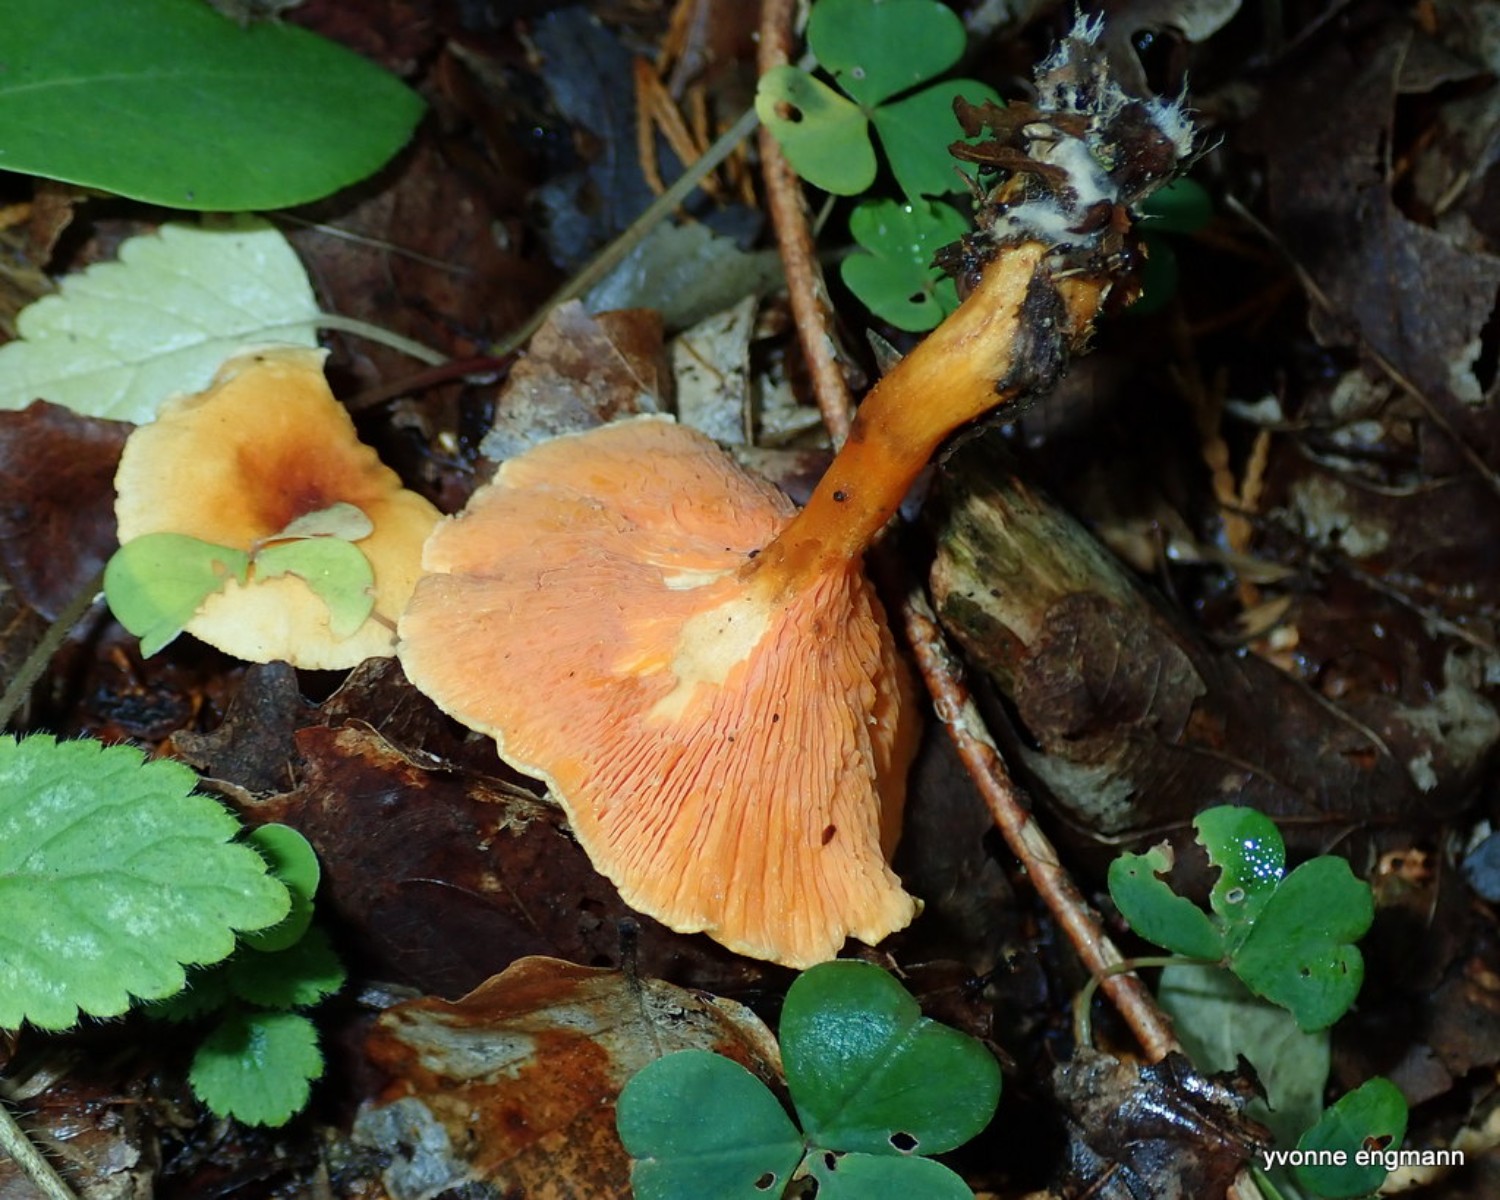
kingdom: Fungi
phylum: Basidiomycota
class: Agaricomycetes
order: Boletales
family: Hygrophoropsidaceae
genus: Hygrophoropsis
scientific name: Hygrophoropsis aurantiaca
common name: almindelig orangekantarel
